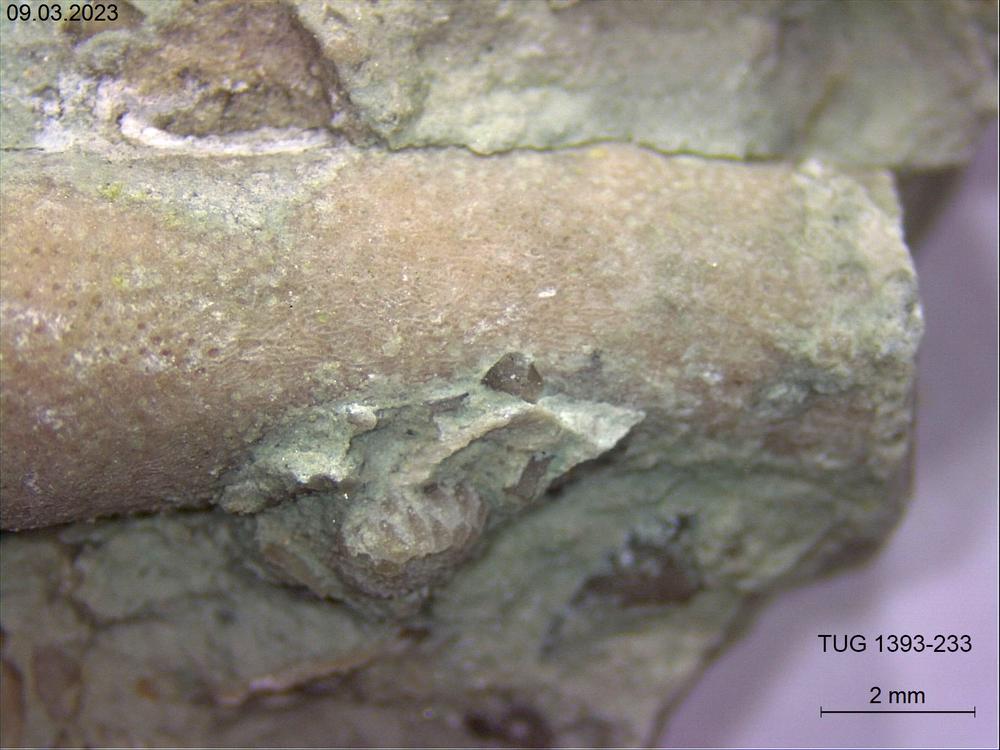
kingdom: Animalia
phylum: Bryozoa
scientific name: Bryozoa
